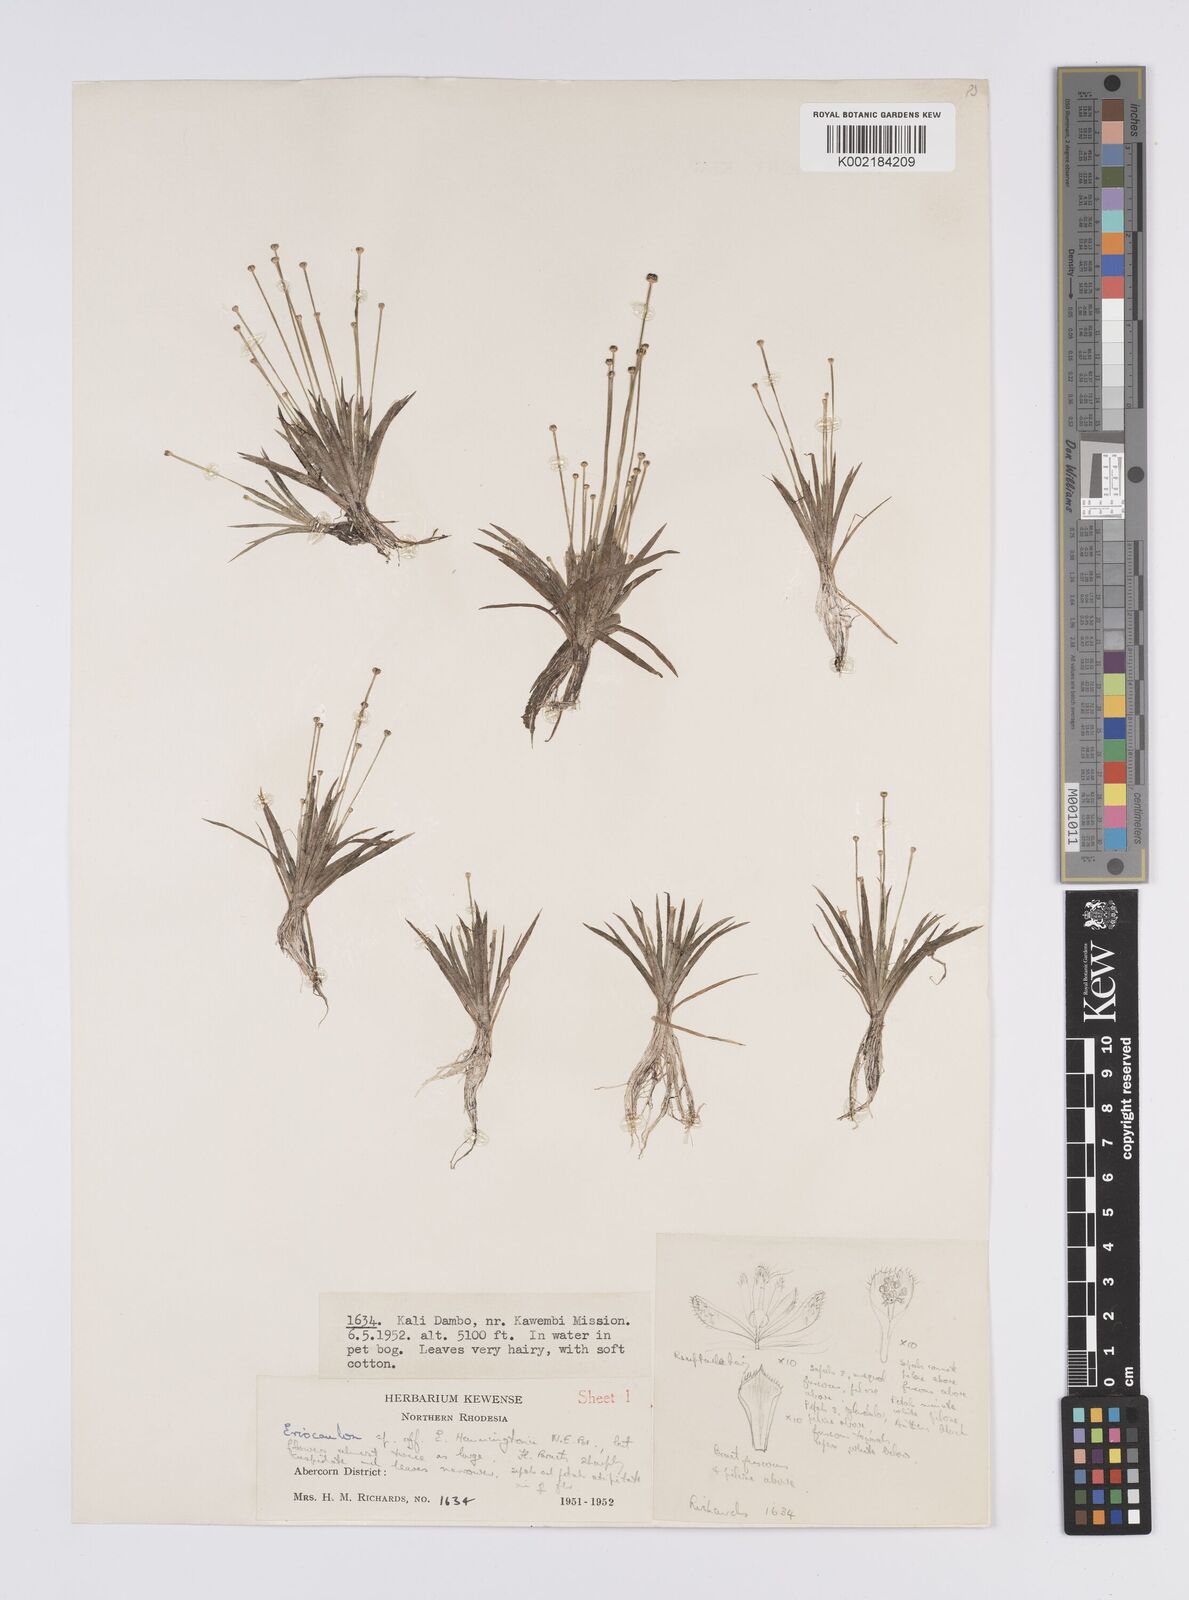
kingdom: Plantae
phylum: Tracheophyta
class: Liliopsida
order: Poales
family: Eriocaulaceae
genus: Eriocaulon
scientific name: Eriocaulon afzelianum
